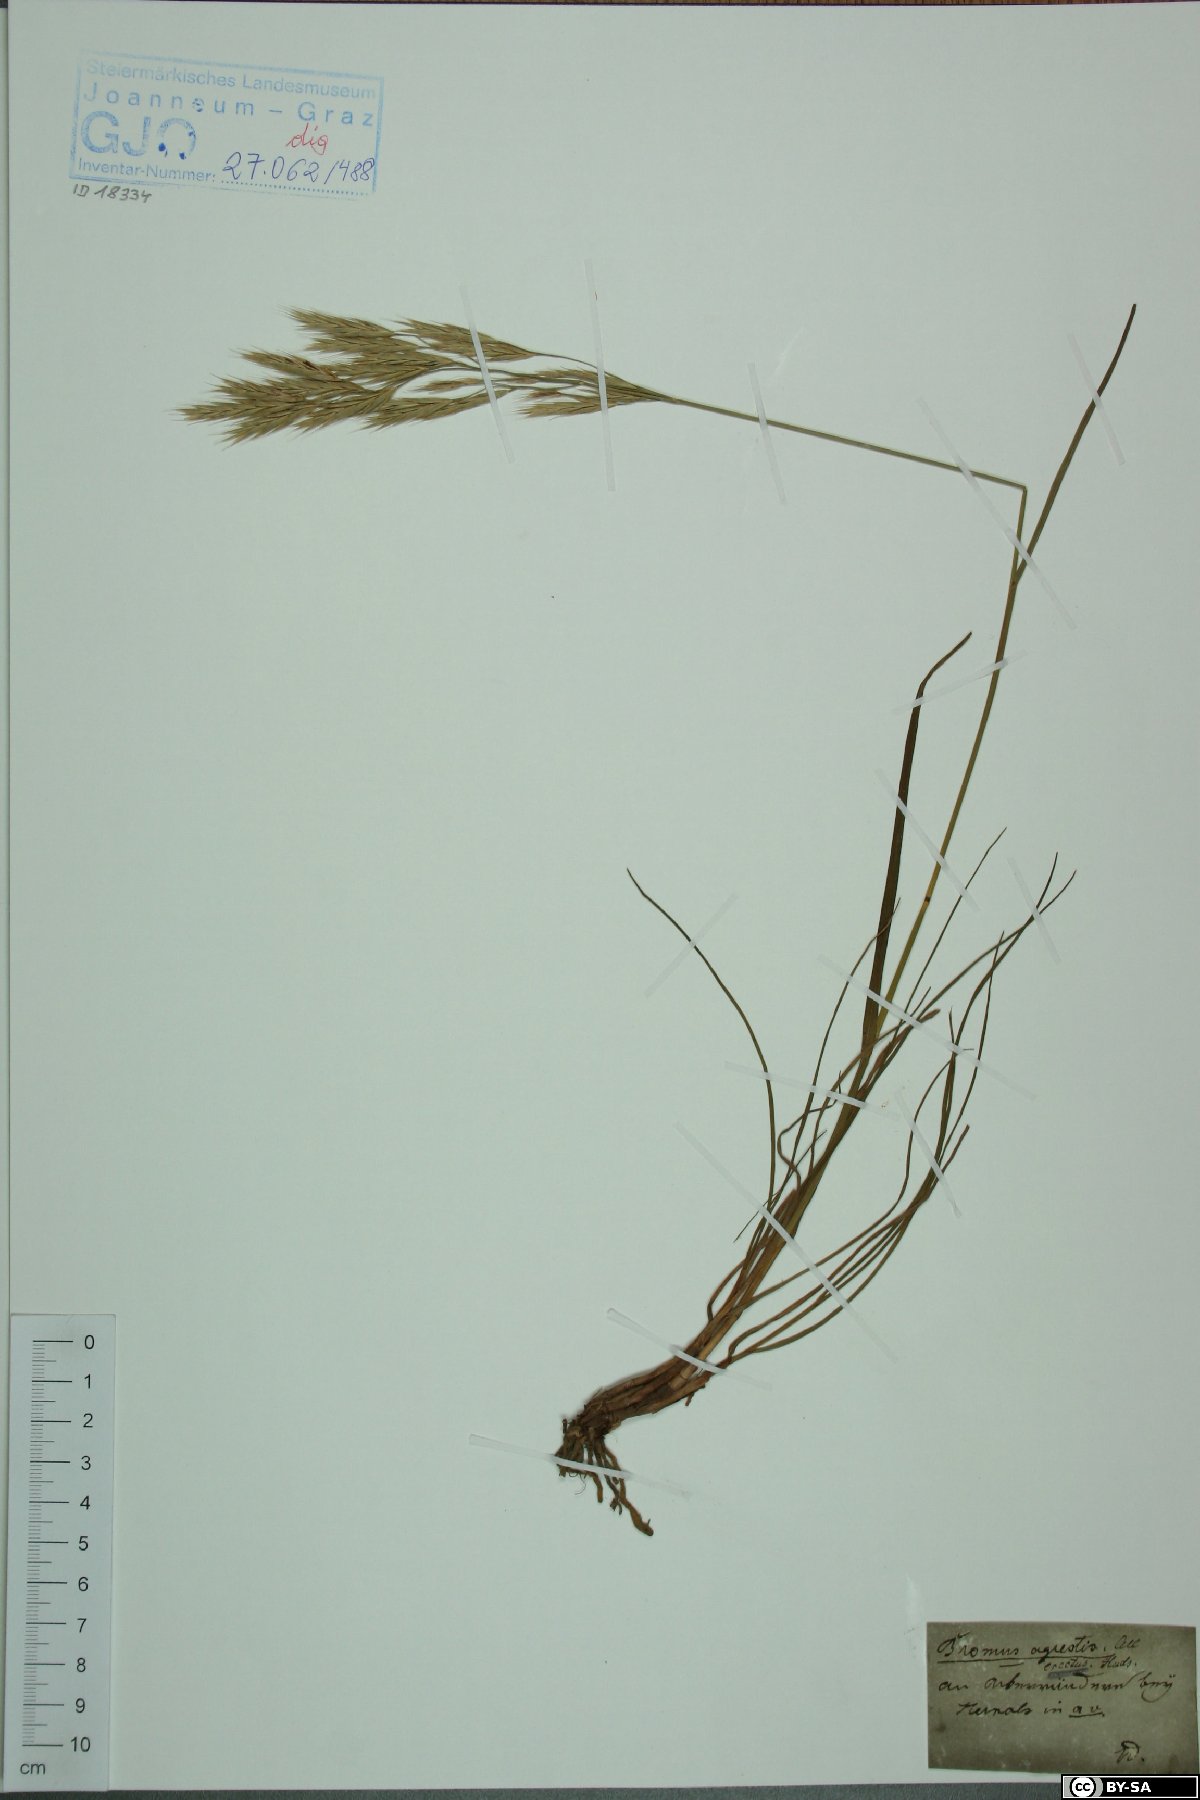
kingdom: Plantae
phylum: Tracheophyta
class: Liliopsida
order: Poales
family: Poaceae
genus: Bromus
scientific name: Bromus erectus
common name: Erect brome
